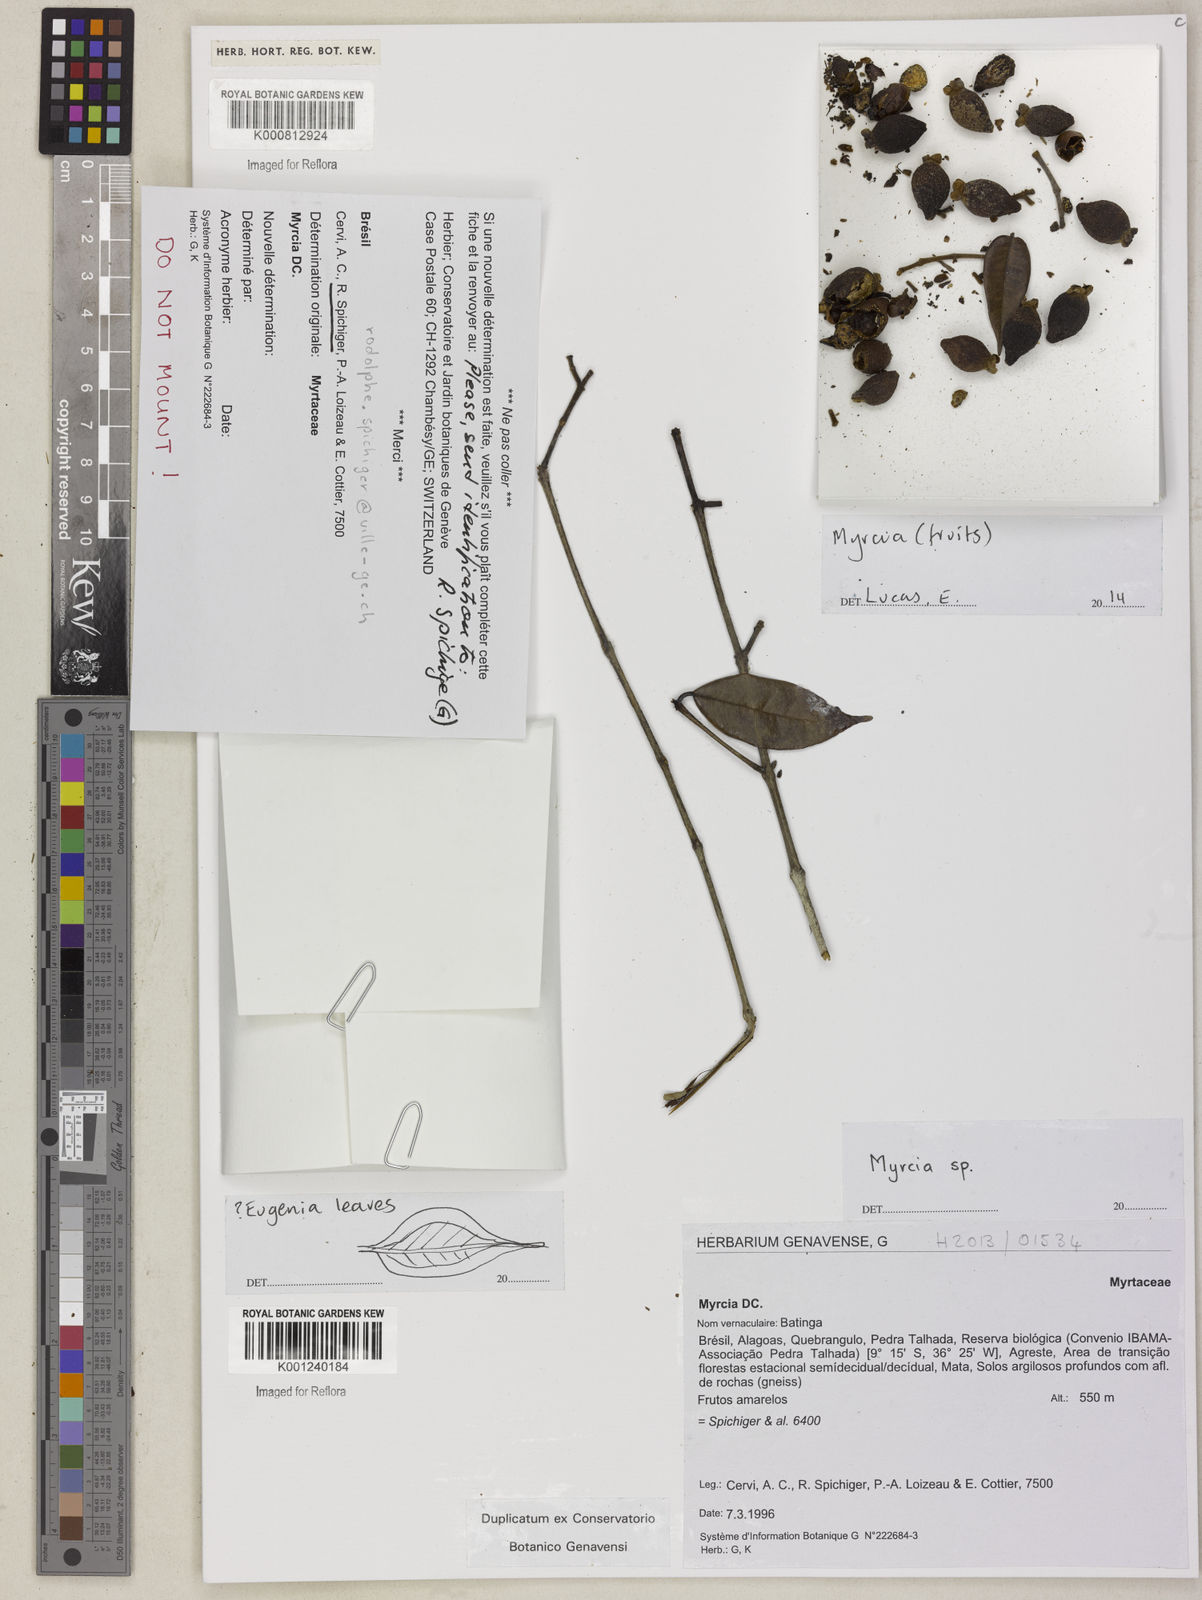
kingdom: Plantae
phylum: Tracheophyta
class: Magnoliopsida
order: Myrtales
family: Myrtaceae
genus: Myrcia
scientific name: Myrcia
